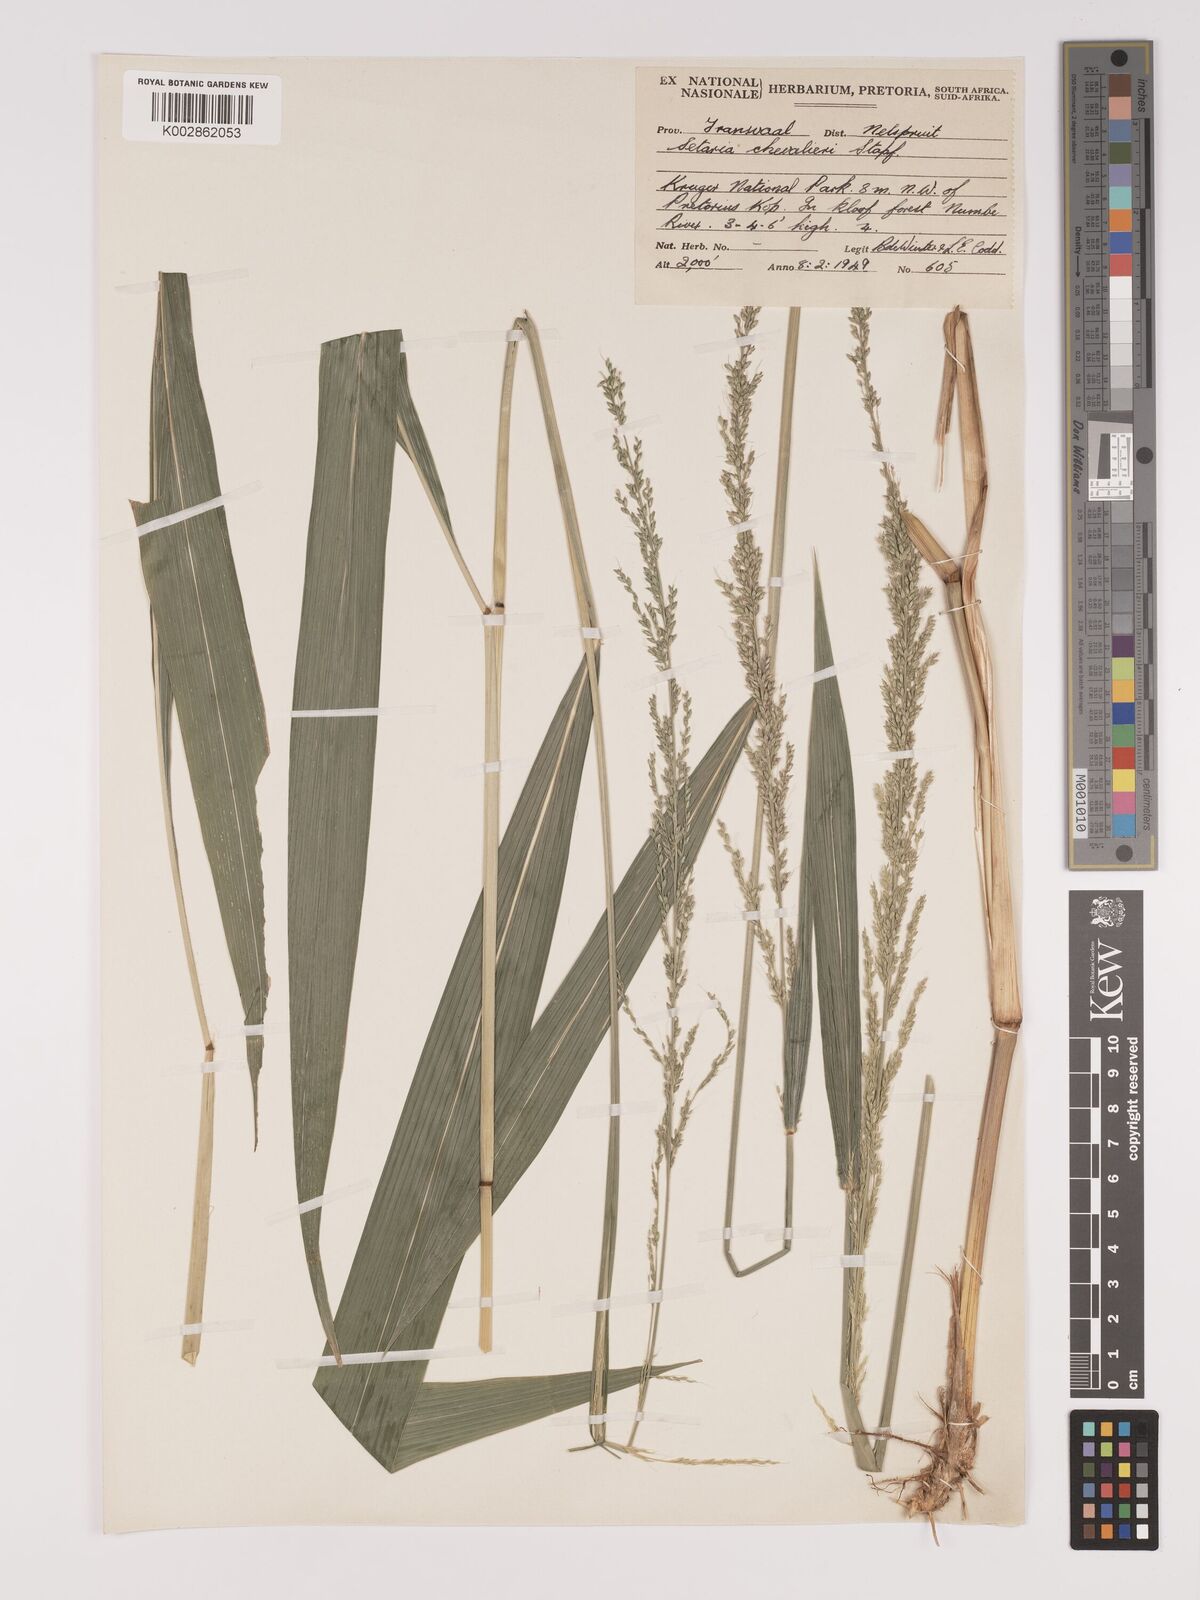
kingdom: Plantae
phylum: Tracheophyta
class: Liliopsida
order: Poales
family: Poaceae
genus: Setaria
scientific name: Setaria megaphylla
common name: Bigleaf bristlegrass
